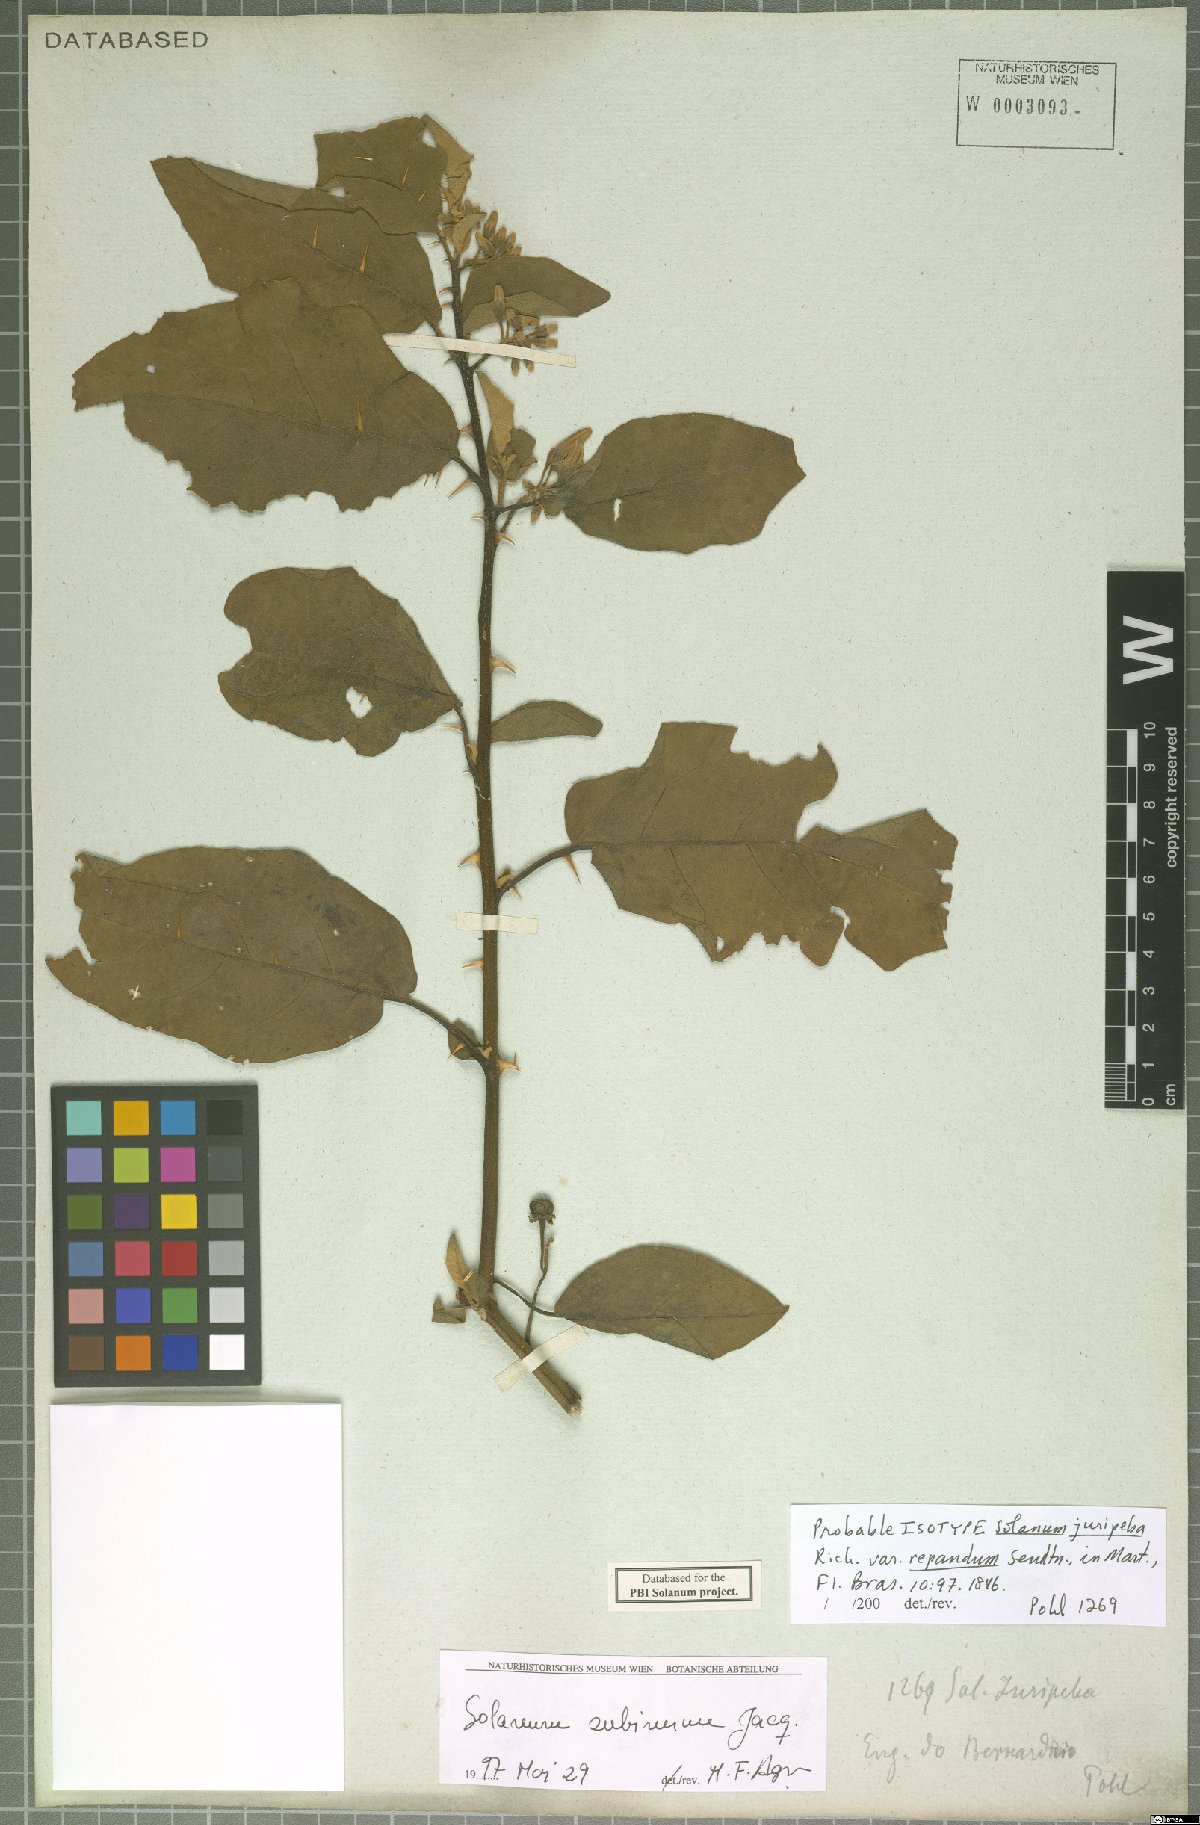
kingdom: Plantae
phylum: Tracheophyta
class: Magnoliopsida
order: Solanales
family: Solanaceae
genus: Solanum
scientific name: Solanum subinerme
